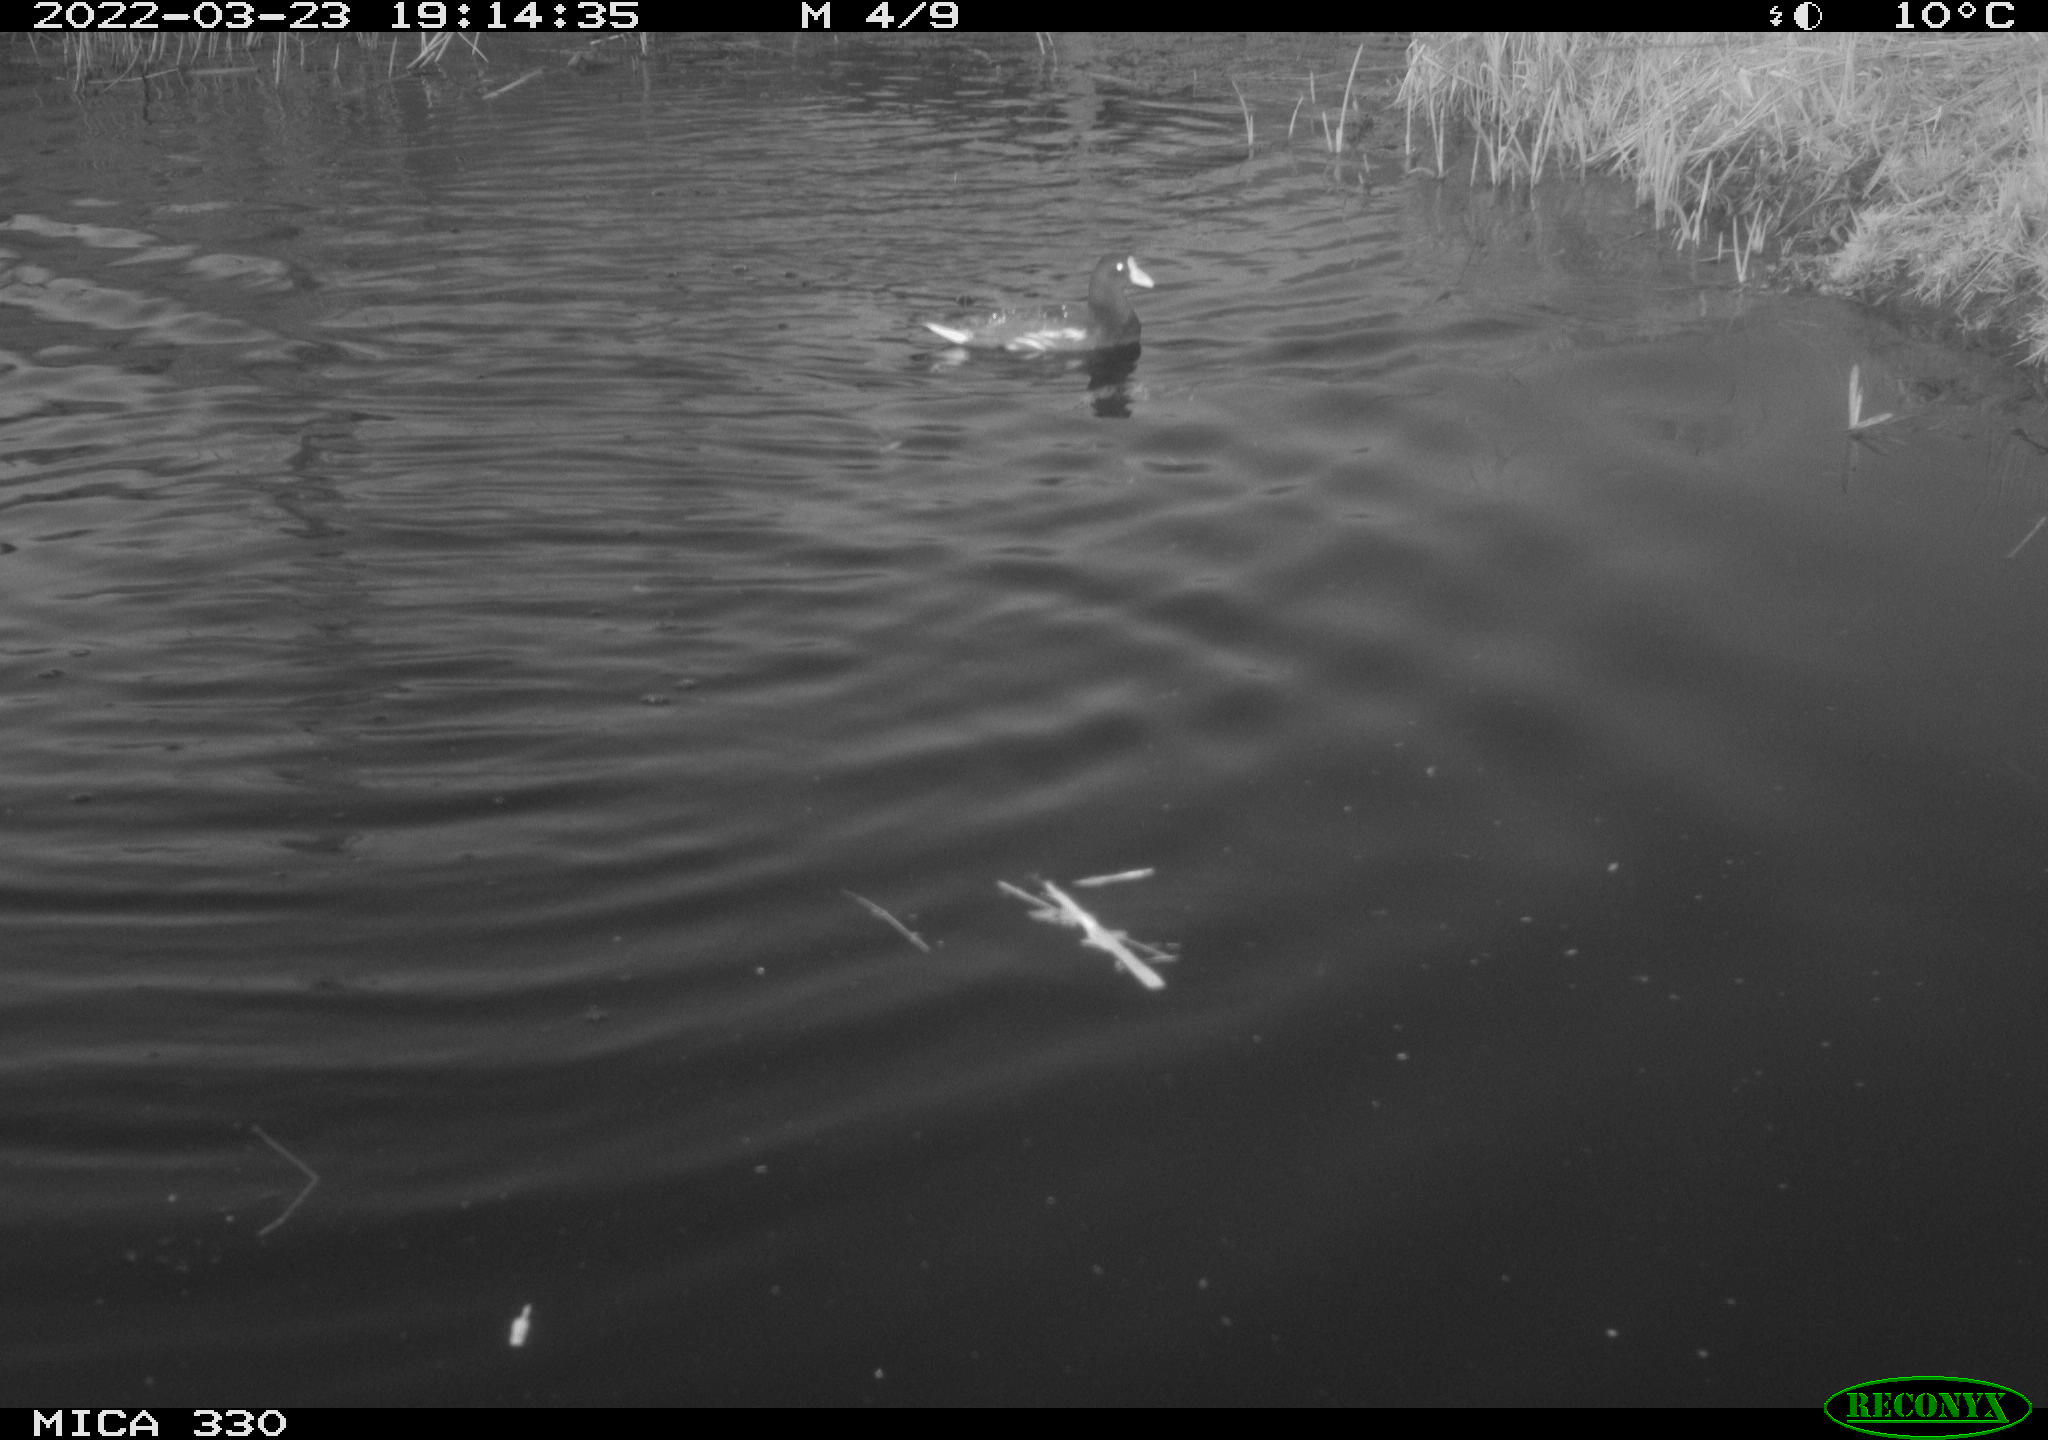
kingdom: Animalia
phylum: Chordata
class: Aves
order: Gruiformes
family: Rallidae
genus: Gallinula
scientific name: Gallinula chloropus
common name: Common moorhen
